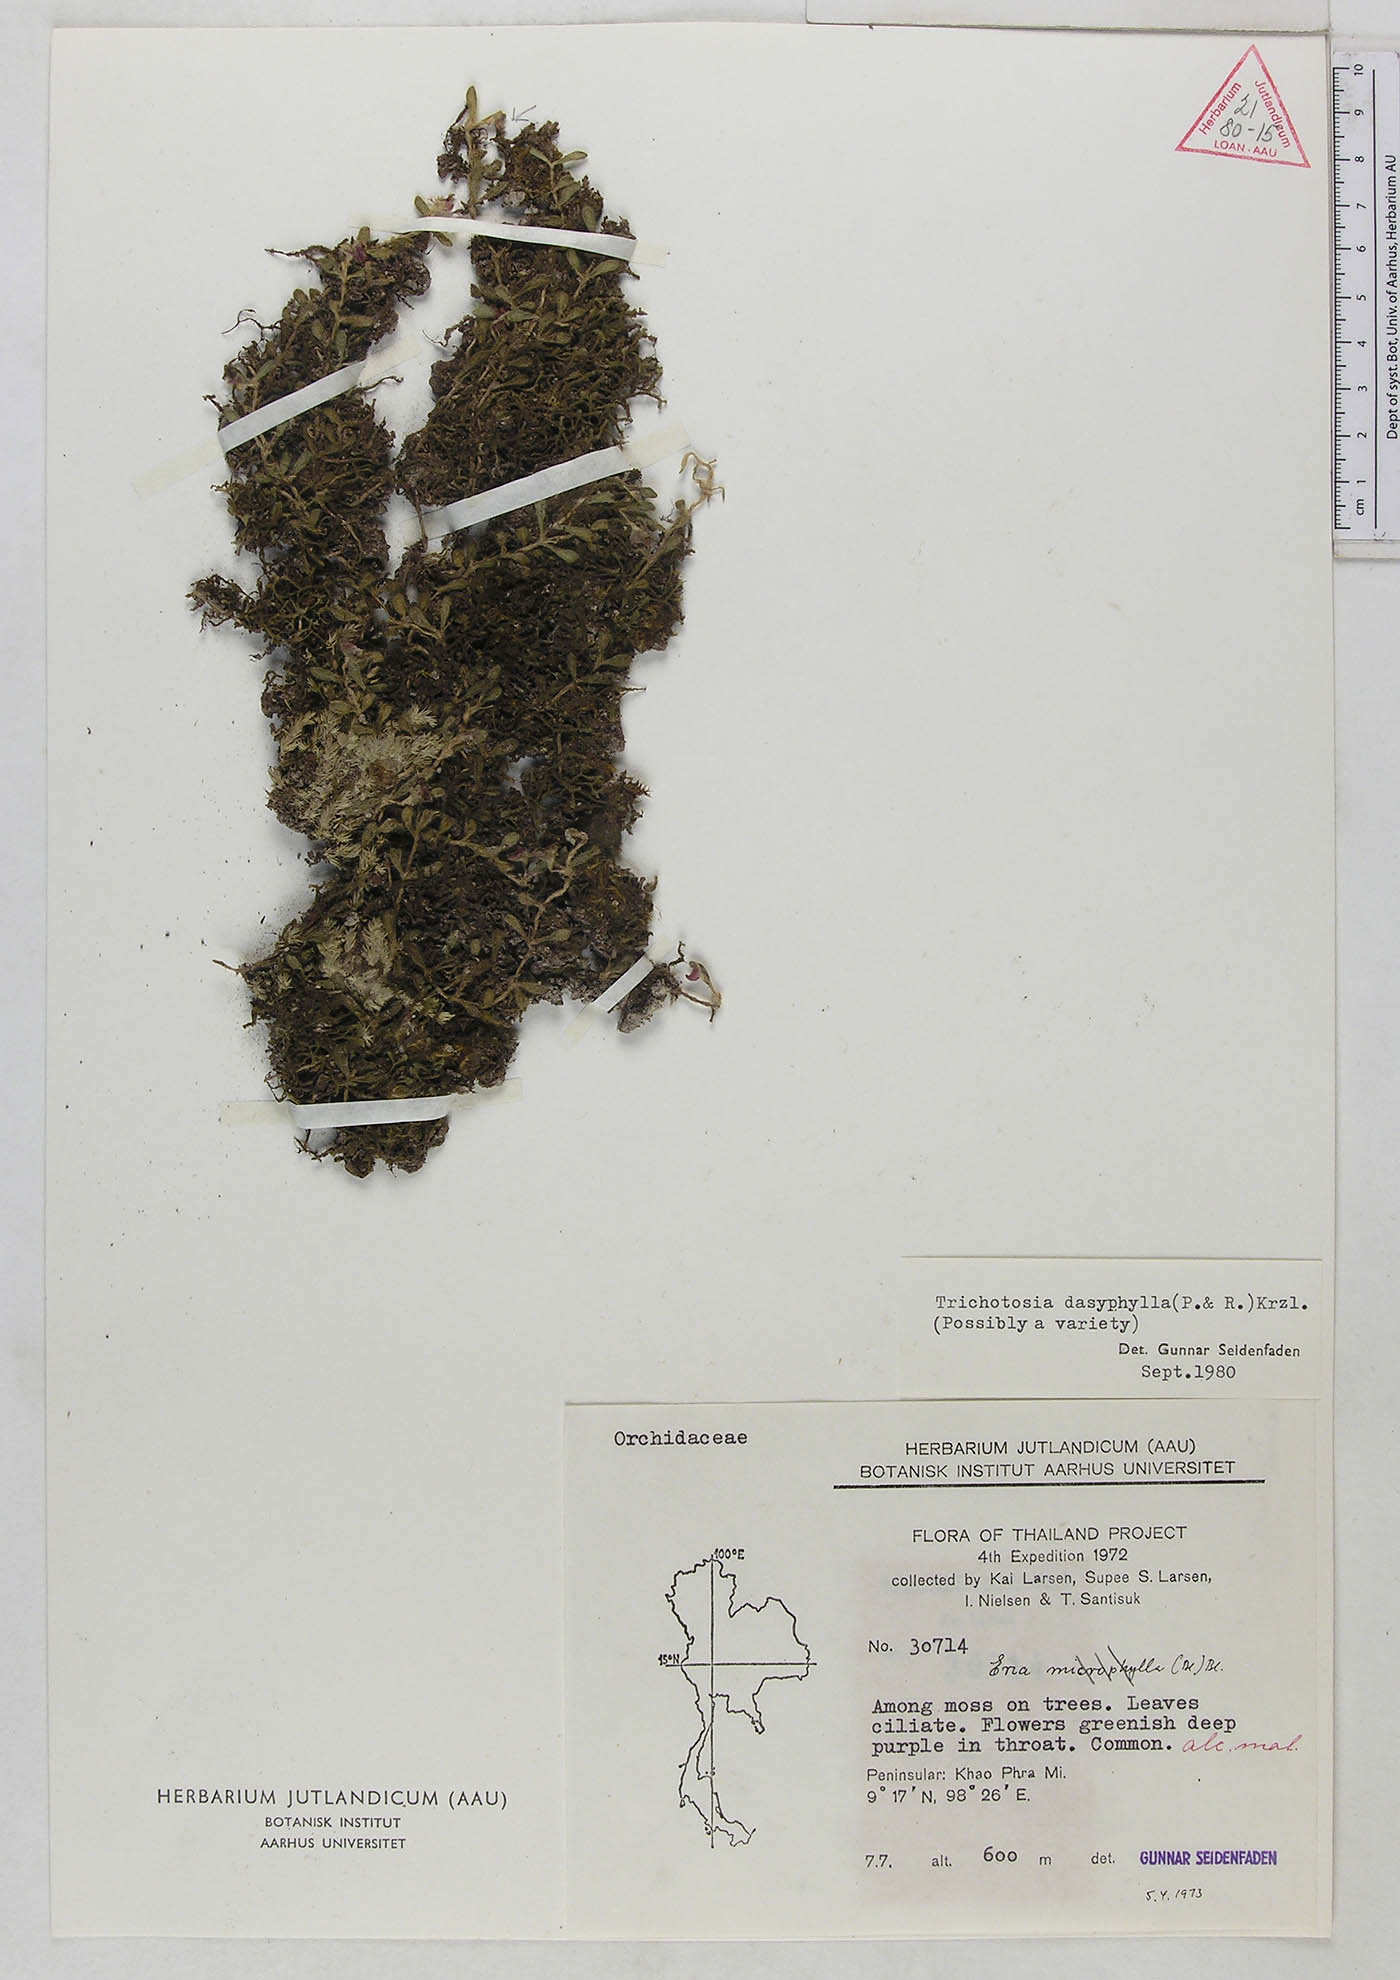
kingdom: Plantae
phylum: Tracheophyta
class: Liliopsida
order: Asparagales
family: Orchidaceae
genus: Trichotosia
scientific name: Trichotosia dasyphylla
